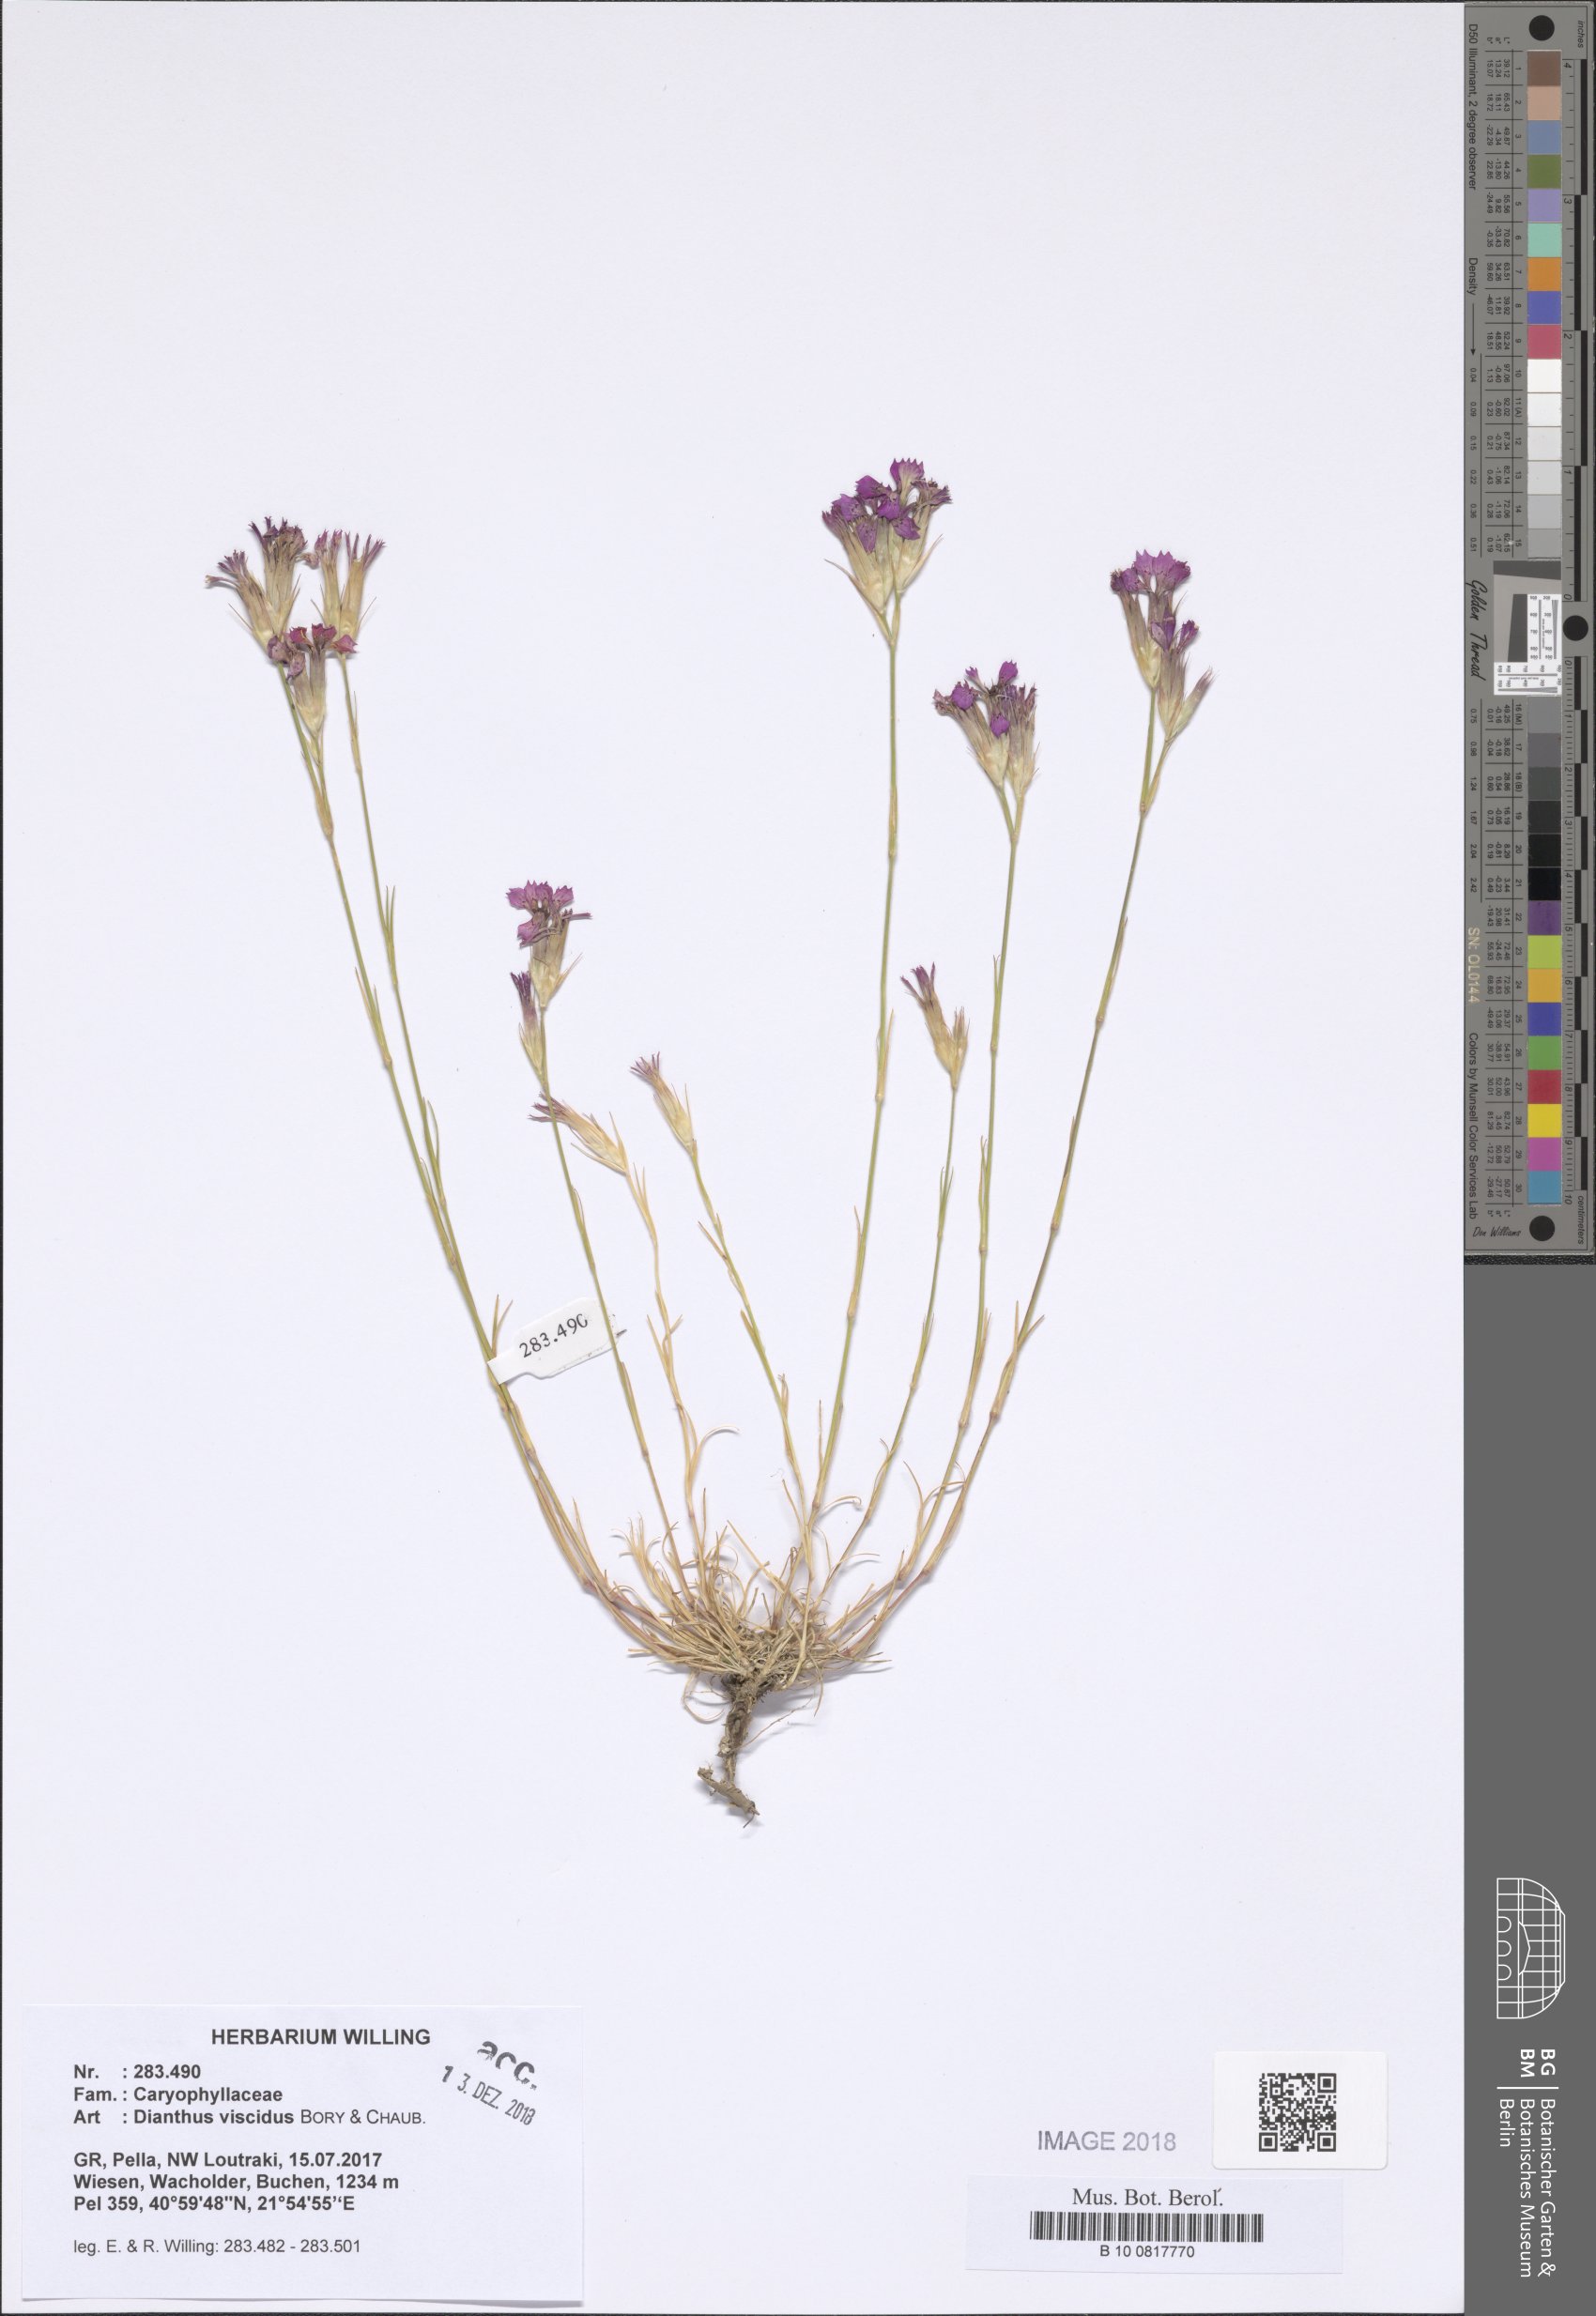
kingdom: Plantae
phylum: Tracheophyta
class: Magnoliopsida
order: Caryophyllales
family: Caryophyllaceae
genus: Dianthus
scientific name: Dianthus viscidus
